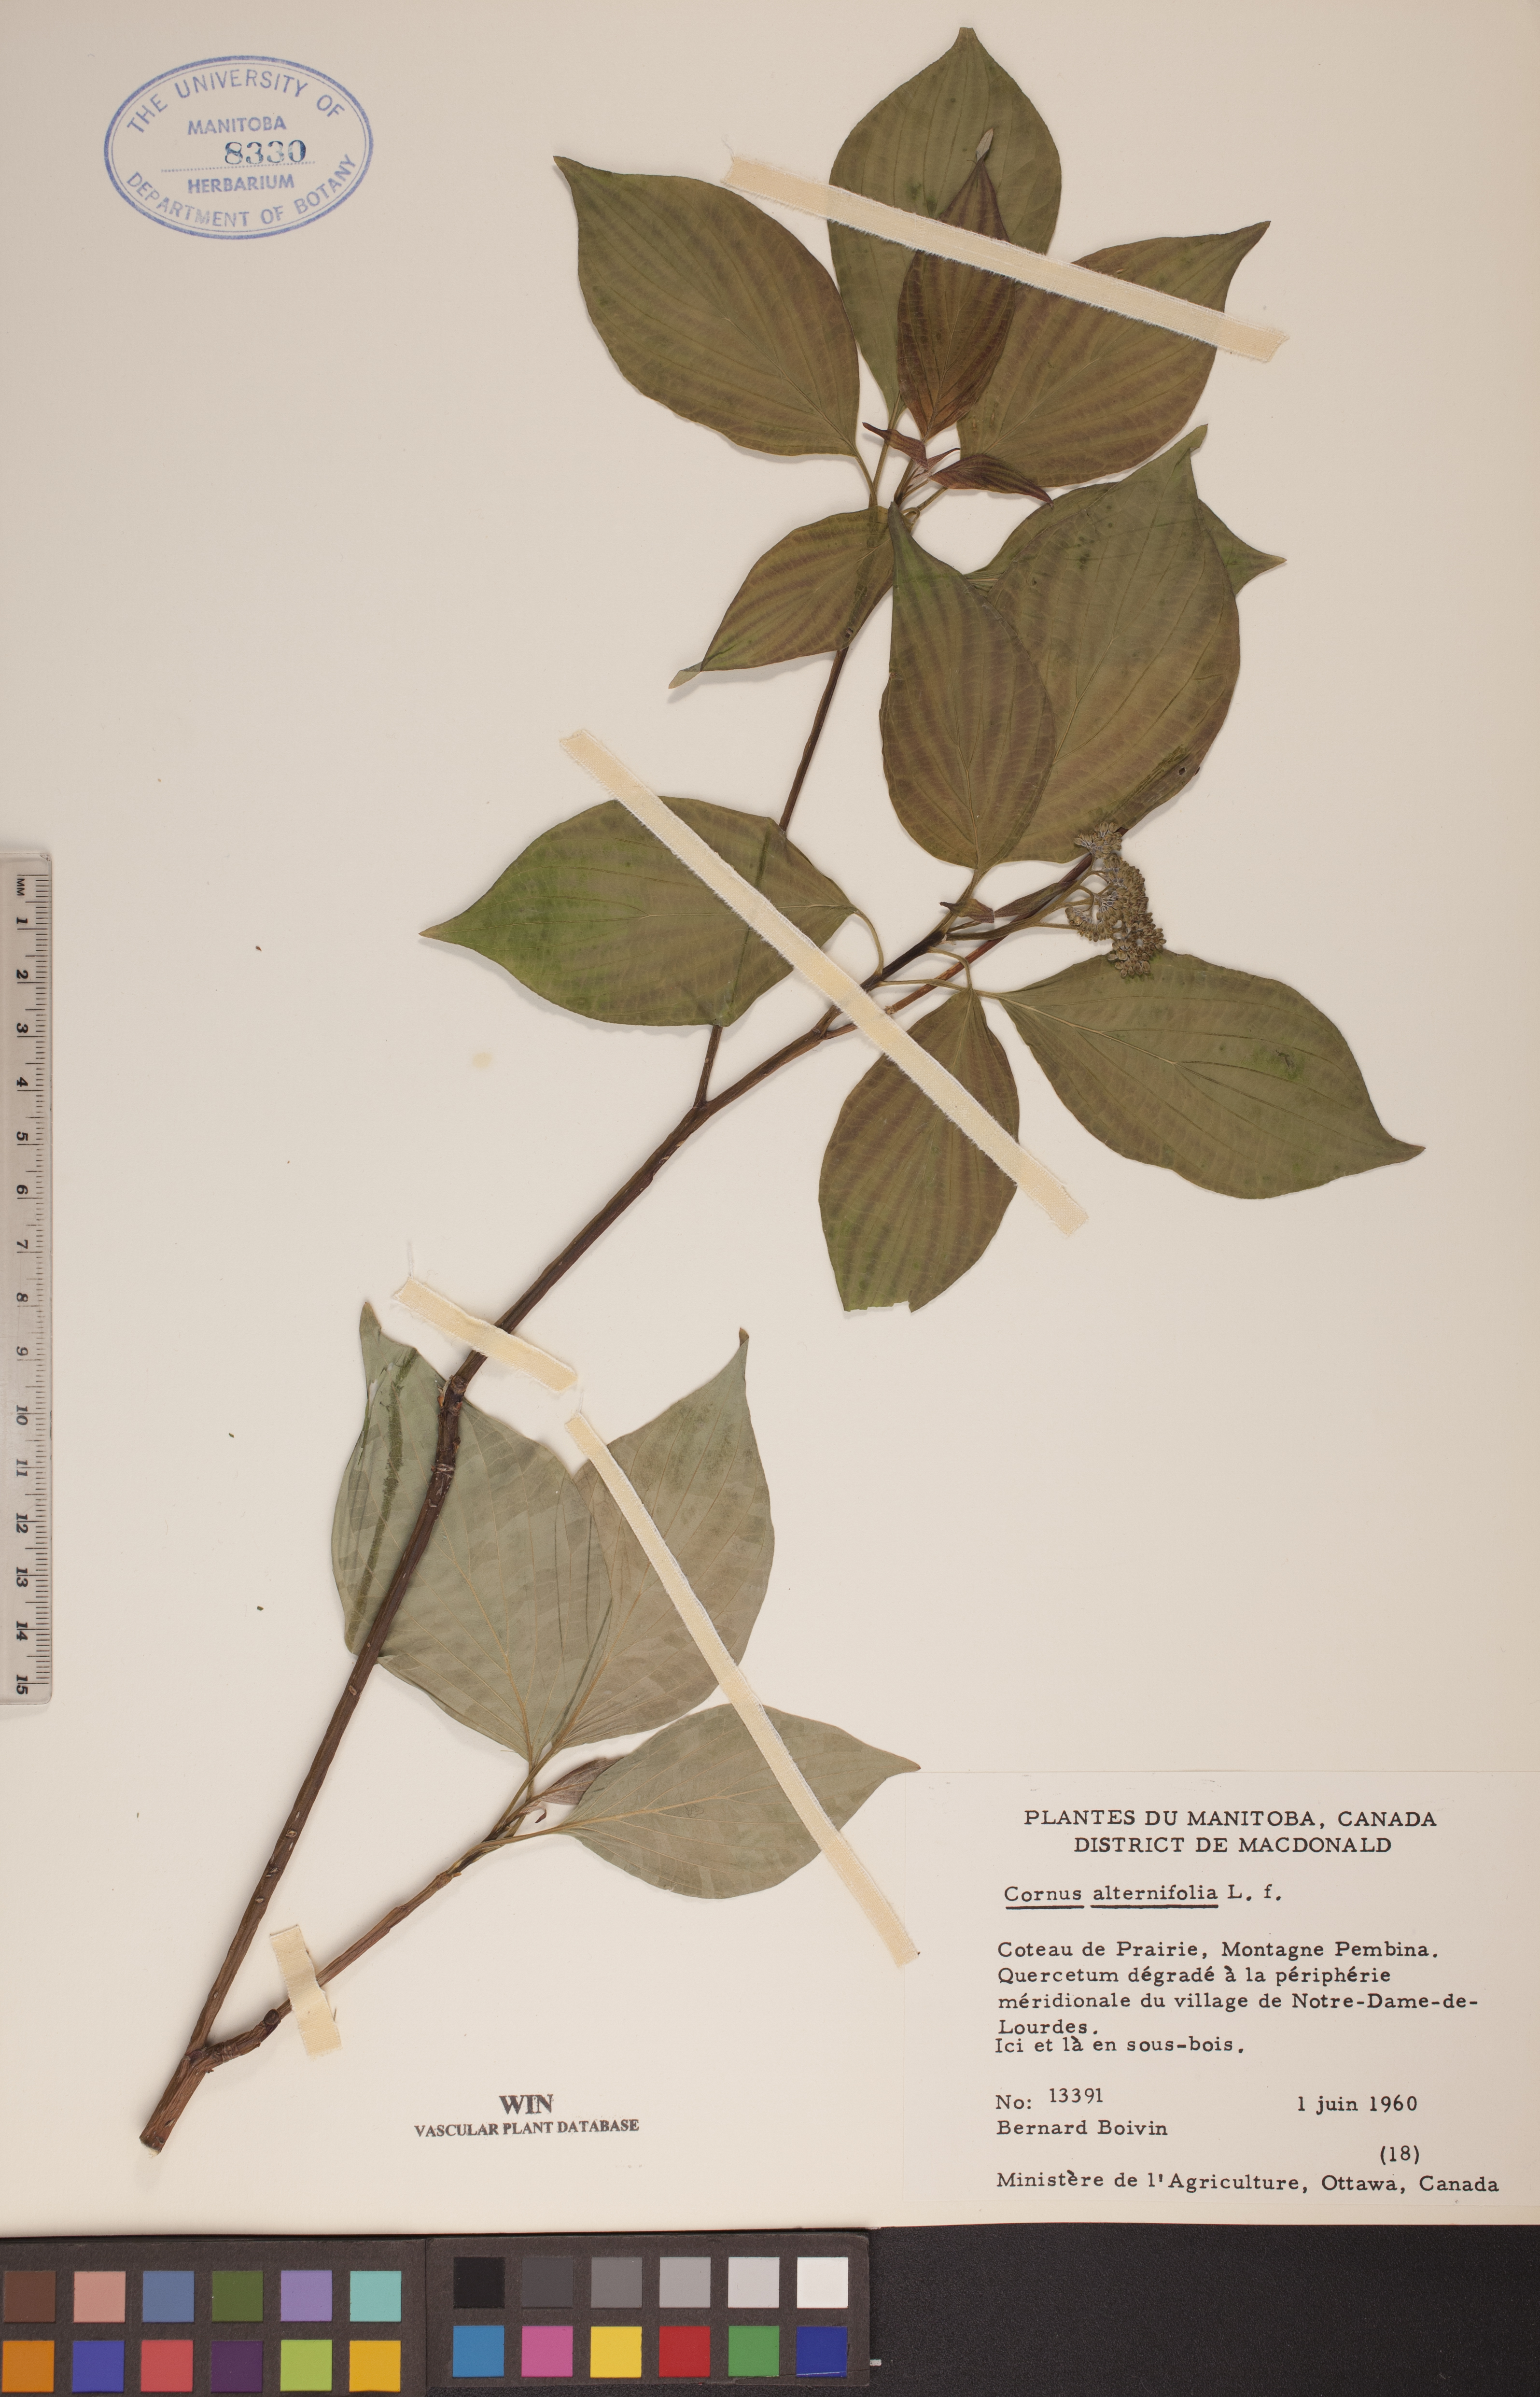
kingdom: Plantae
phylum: Tracheophyta
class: Magnoliopsida
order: Cornales
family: Cornaceae
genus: Cornus
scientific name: Cornus alternifolia
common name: Pagoda dogwood
